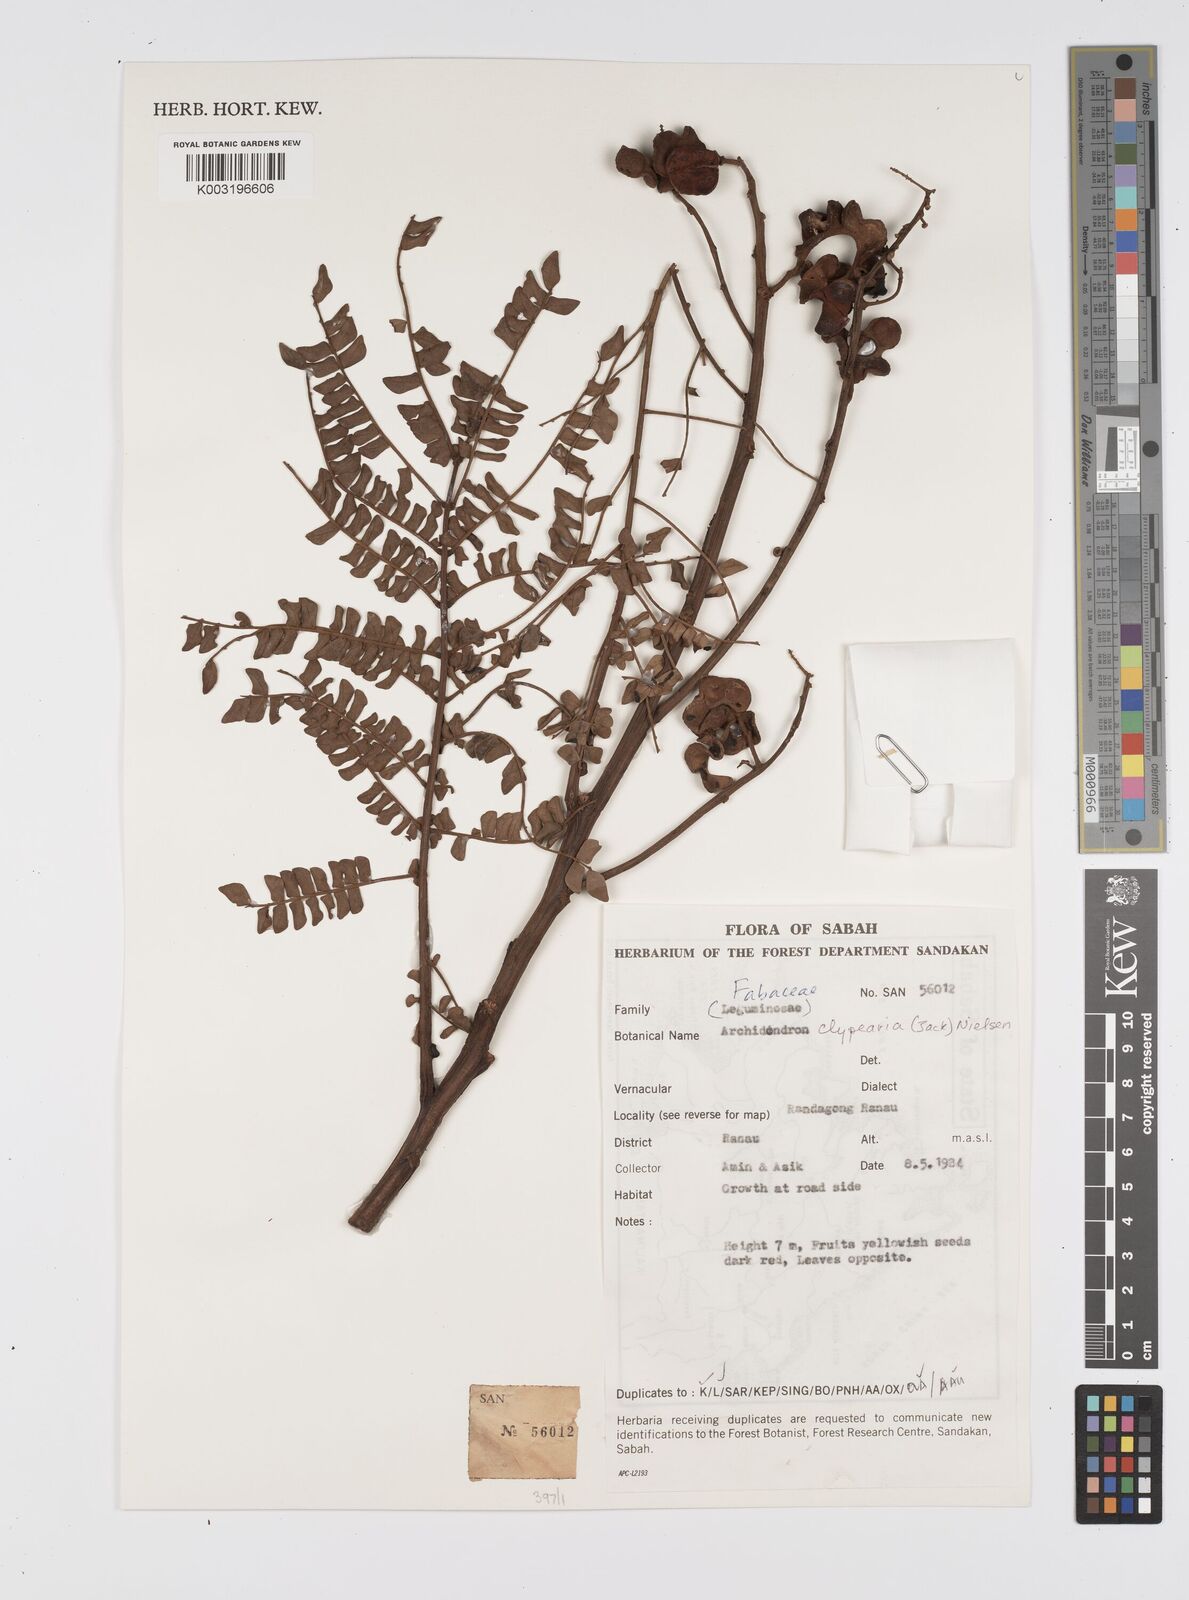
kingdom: Plantae
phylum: Tracheophyta
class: Magnoliopsida
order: Fabales
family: Fabaceae
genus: Archidendron
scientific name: Archidendron clypearia
